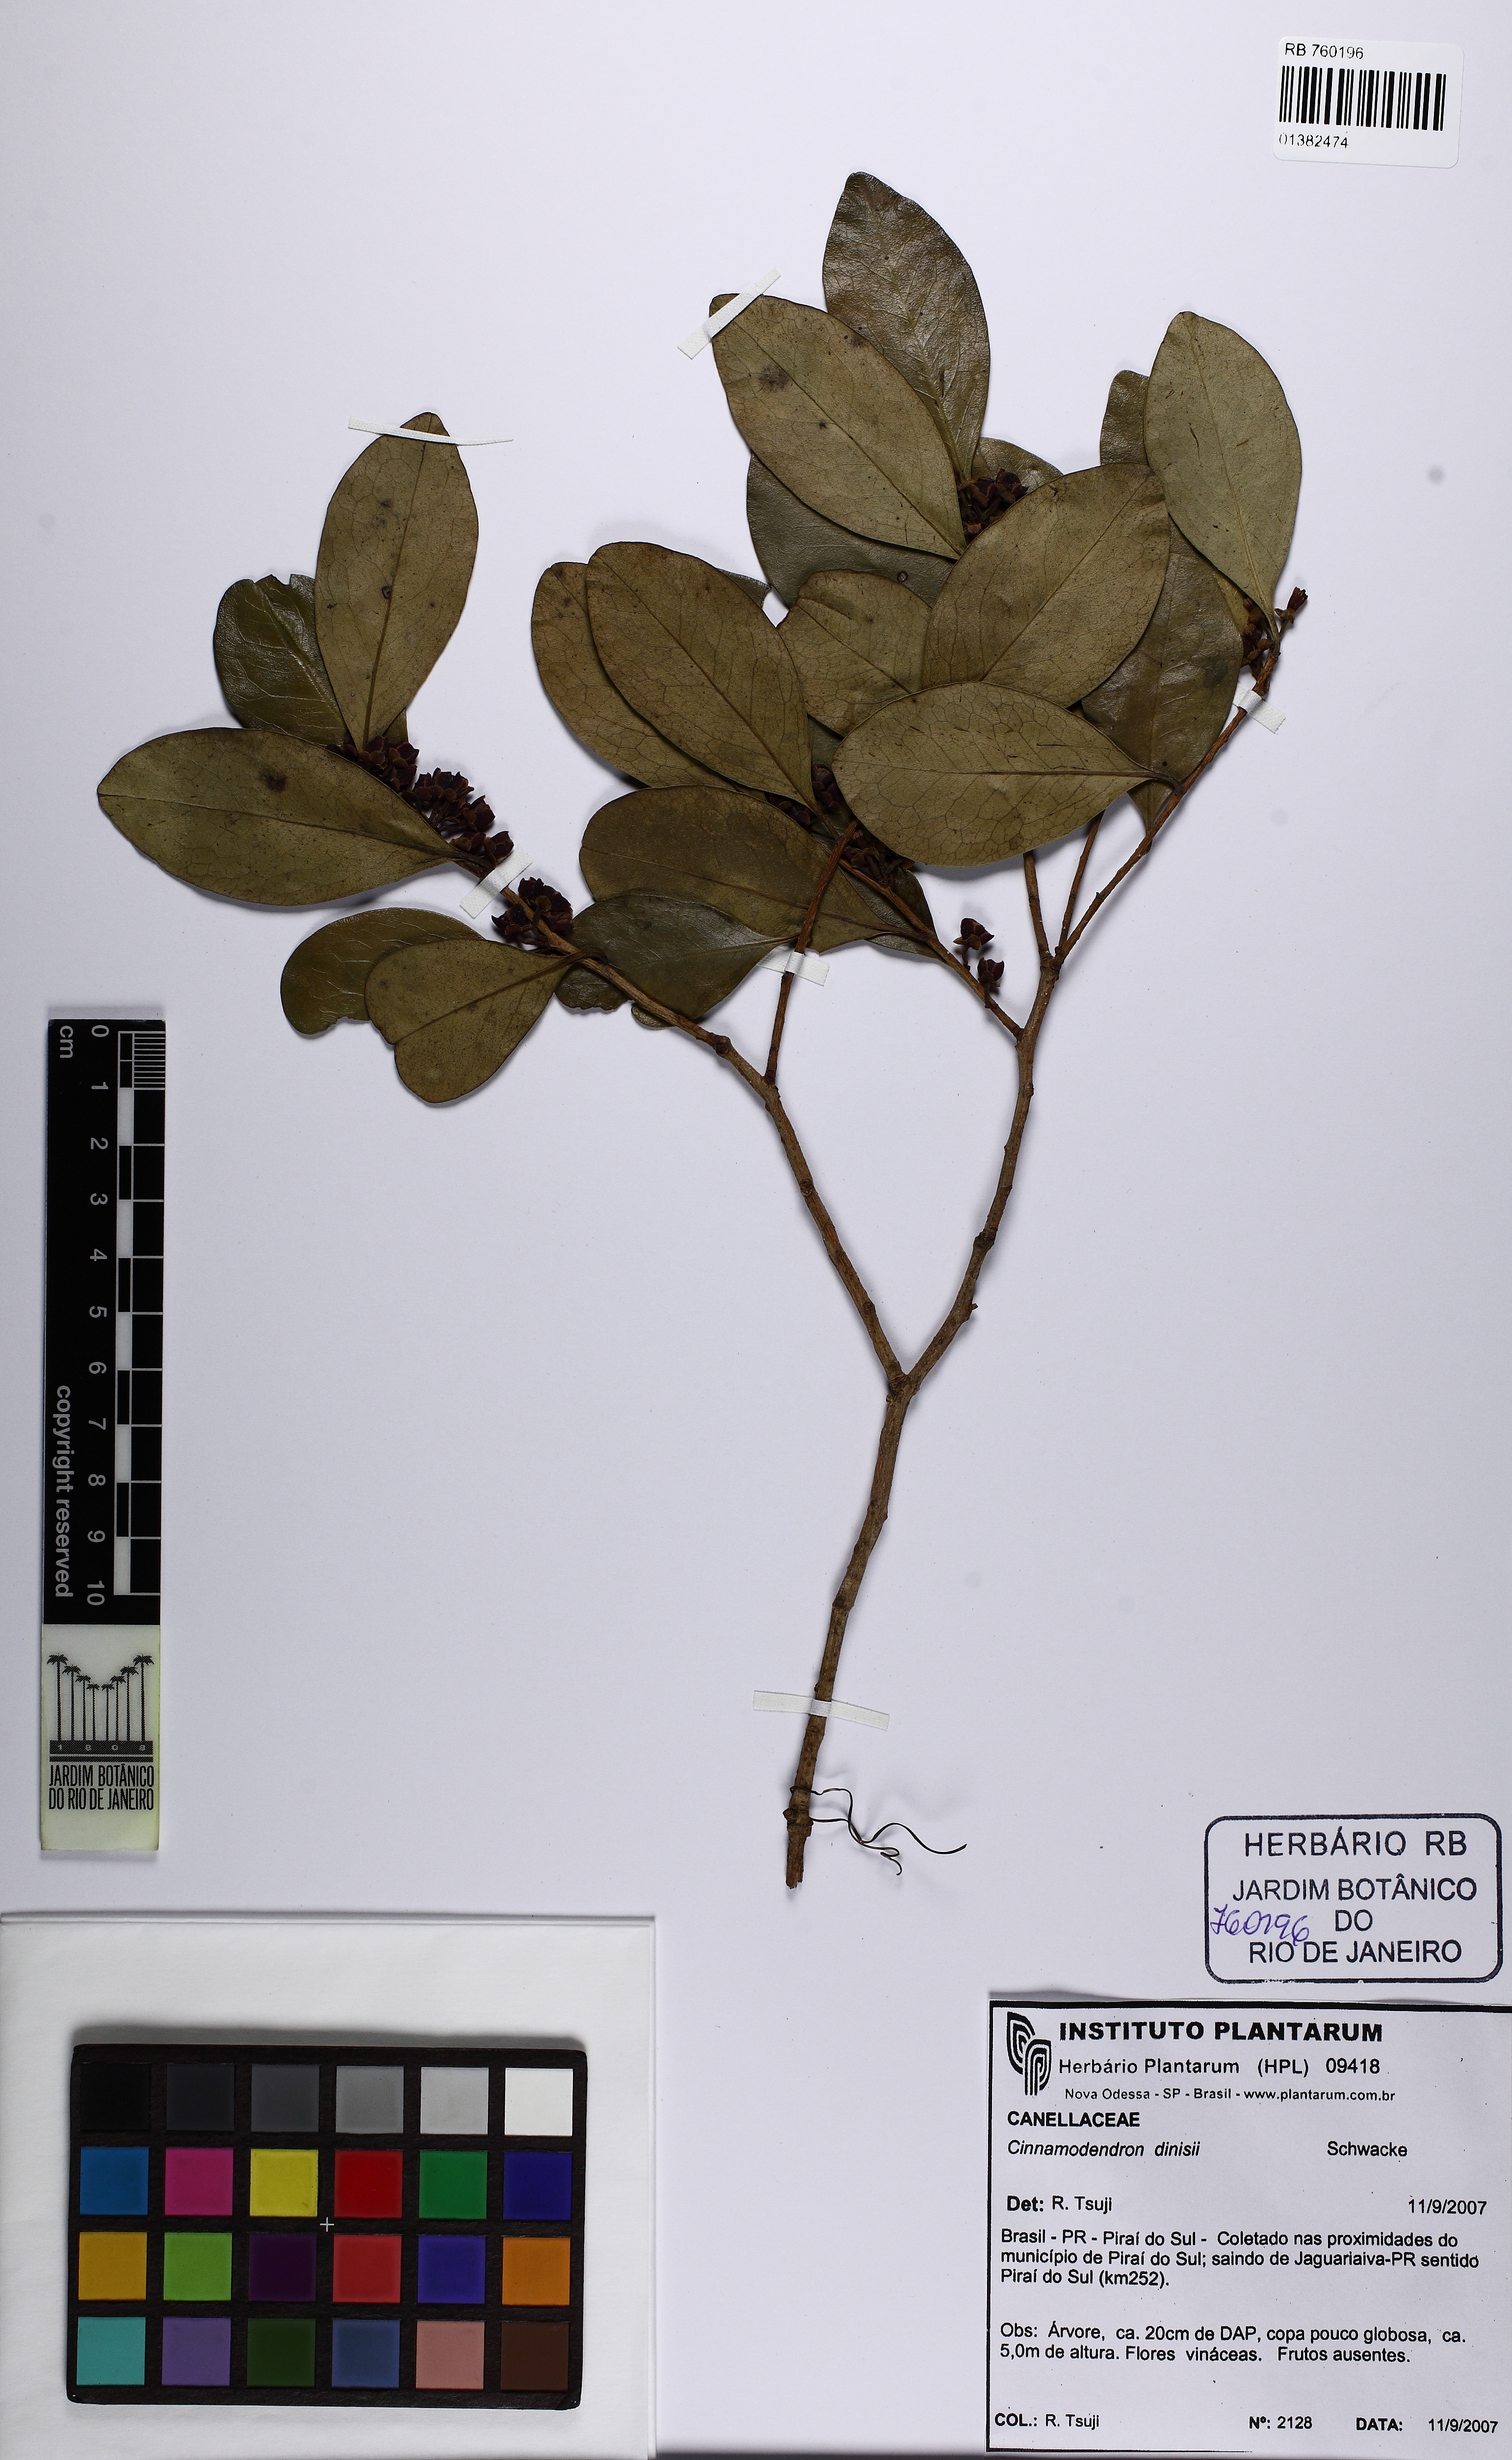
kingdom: Plantae
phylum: Tracheophyta
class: Magnoliopsida
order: Canellales
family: Canellaceae
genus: Cinnamodendron
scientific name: Cinnamodendron dinisii
